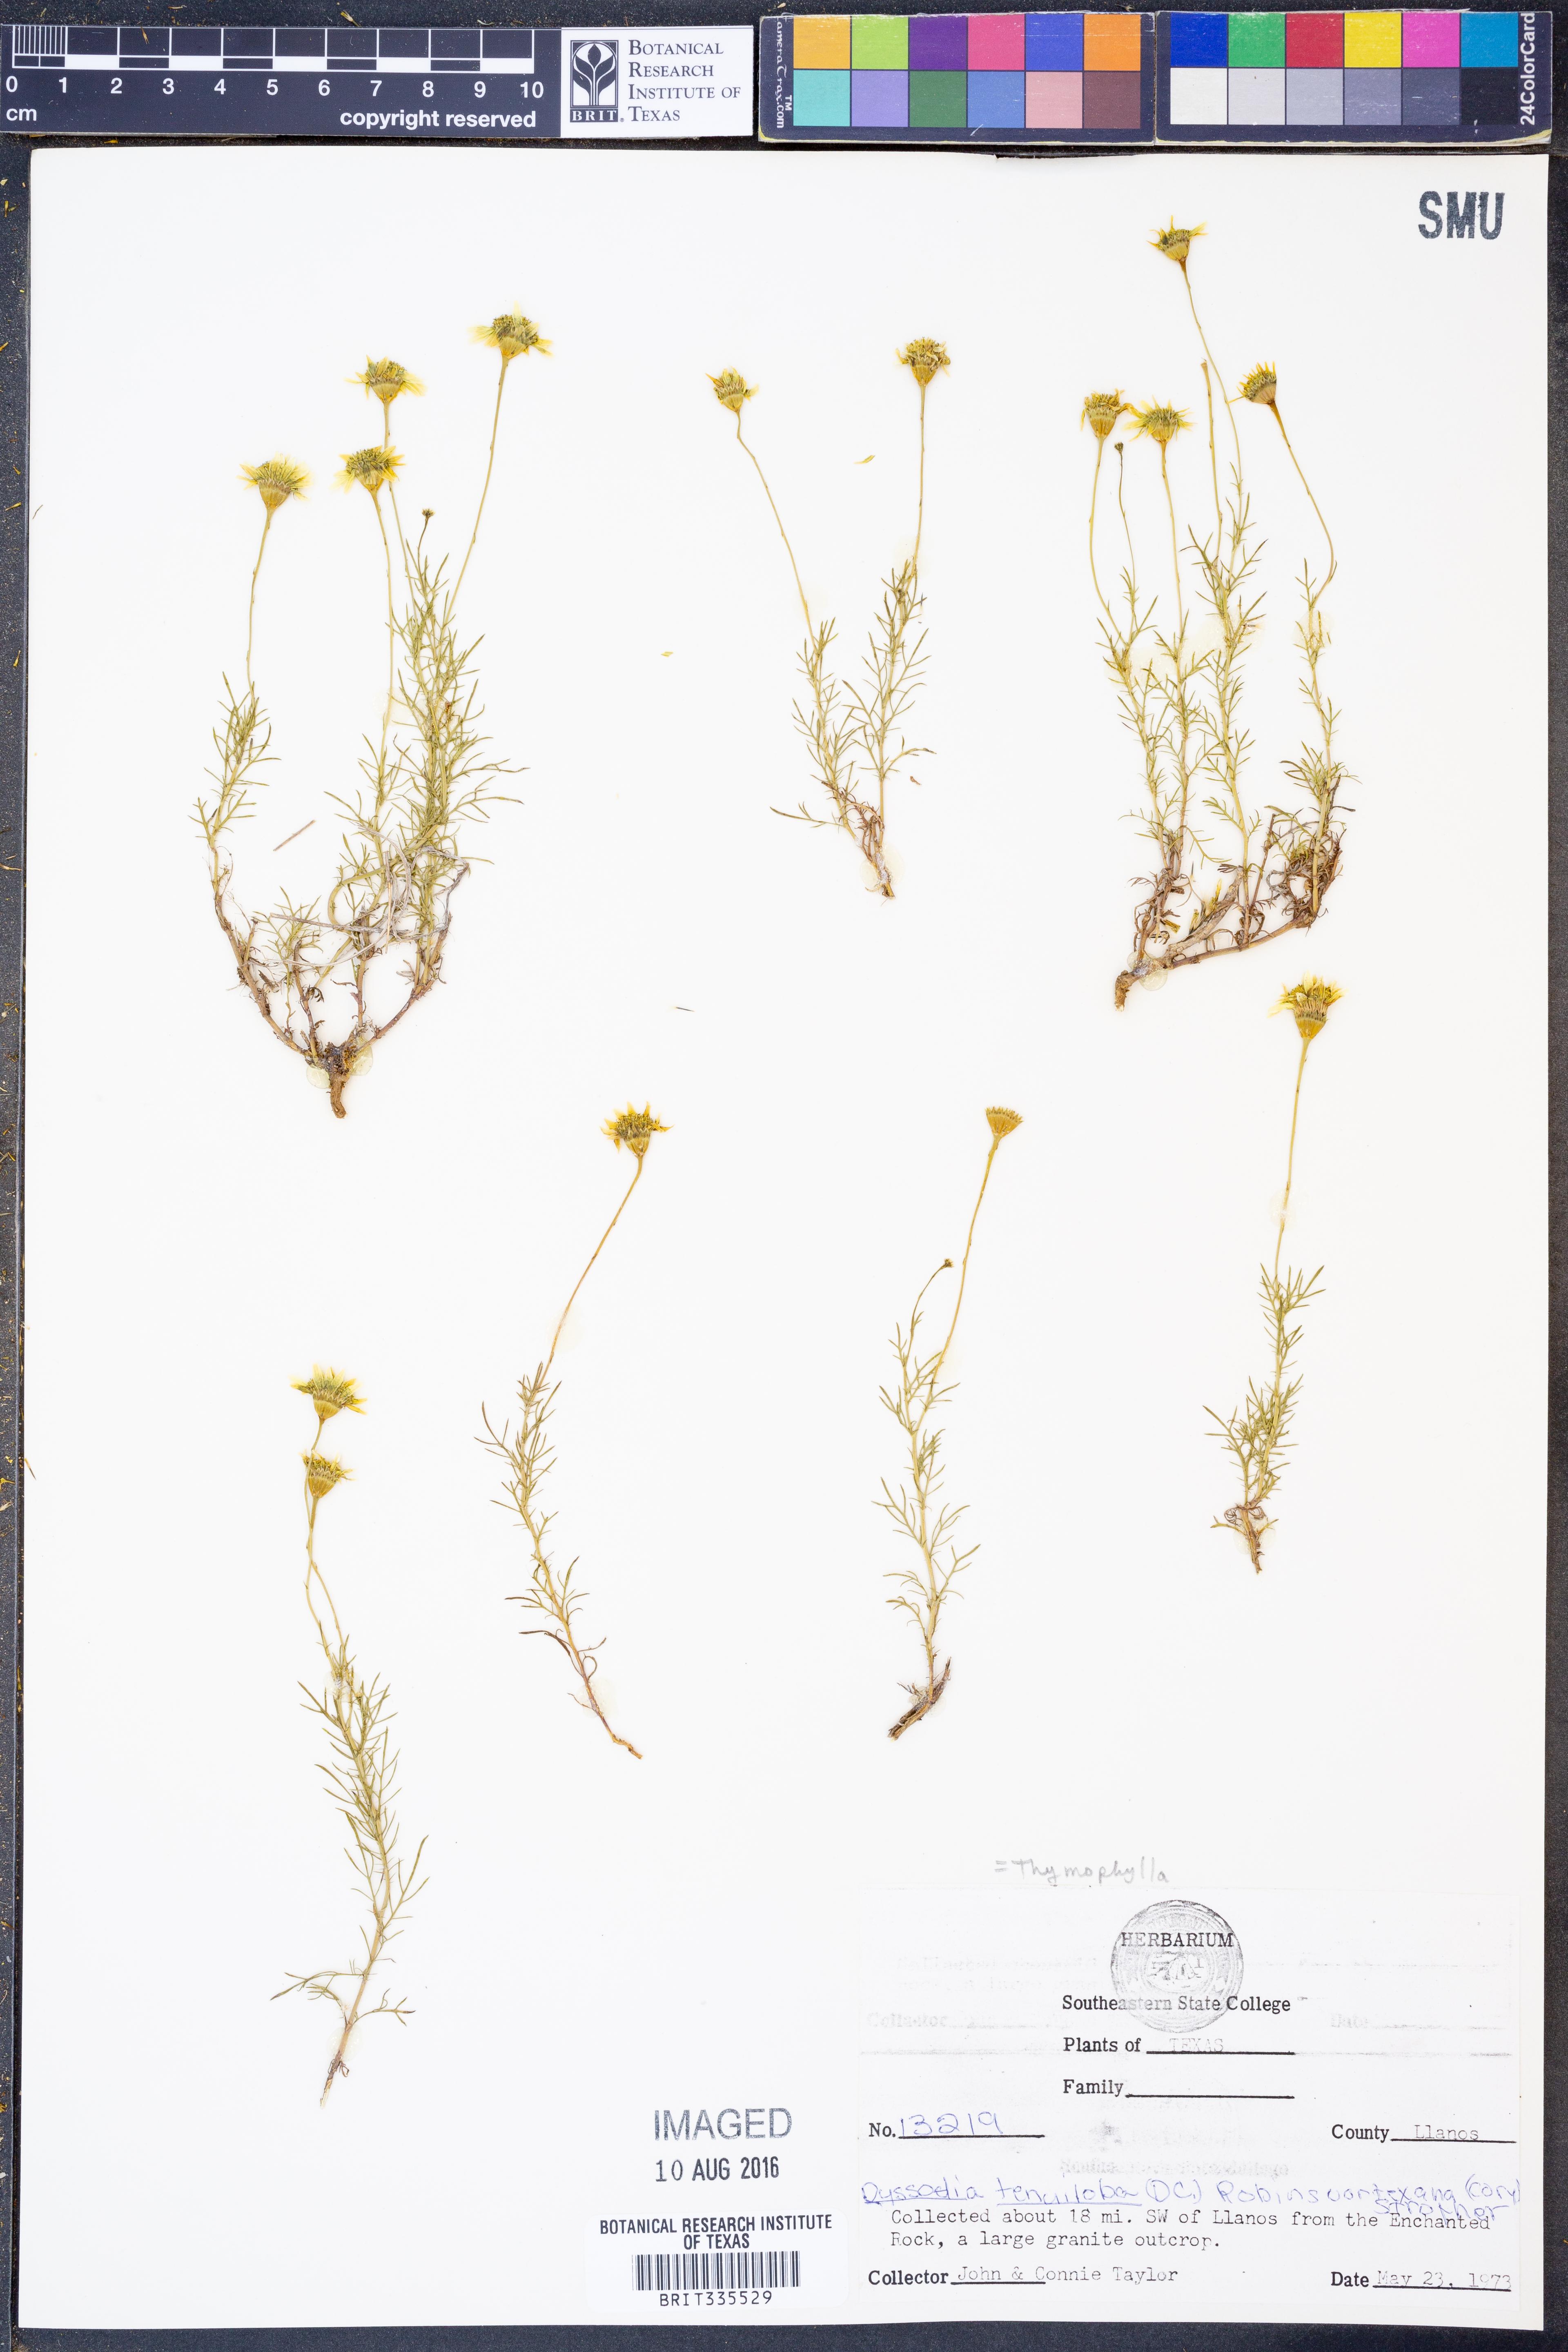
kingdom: Plantae
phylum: Tracheophyta
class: Magnoliopsida
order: Asterales
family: Asteraceae
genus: Thymophylla
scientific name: Thymophylla tenuiloba
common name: Dahlberg's daisy
